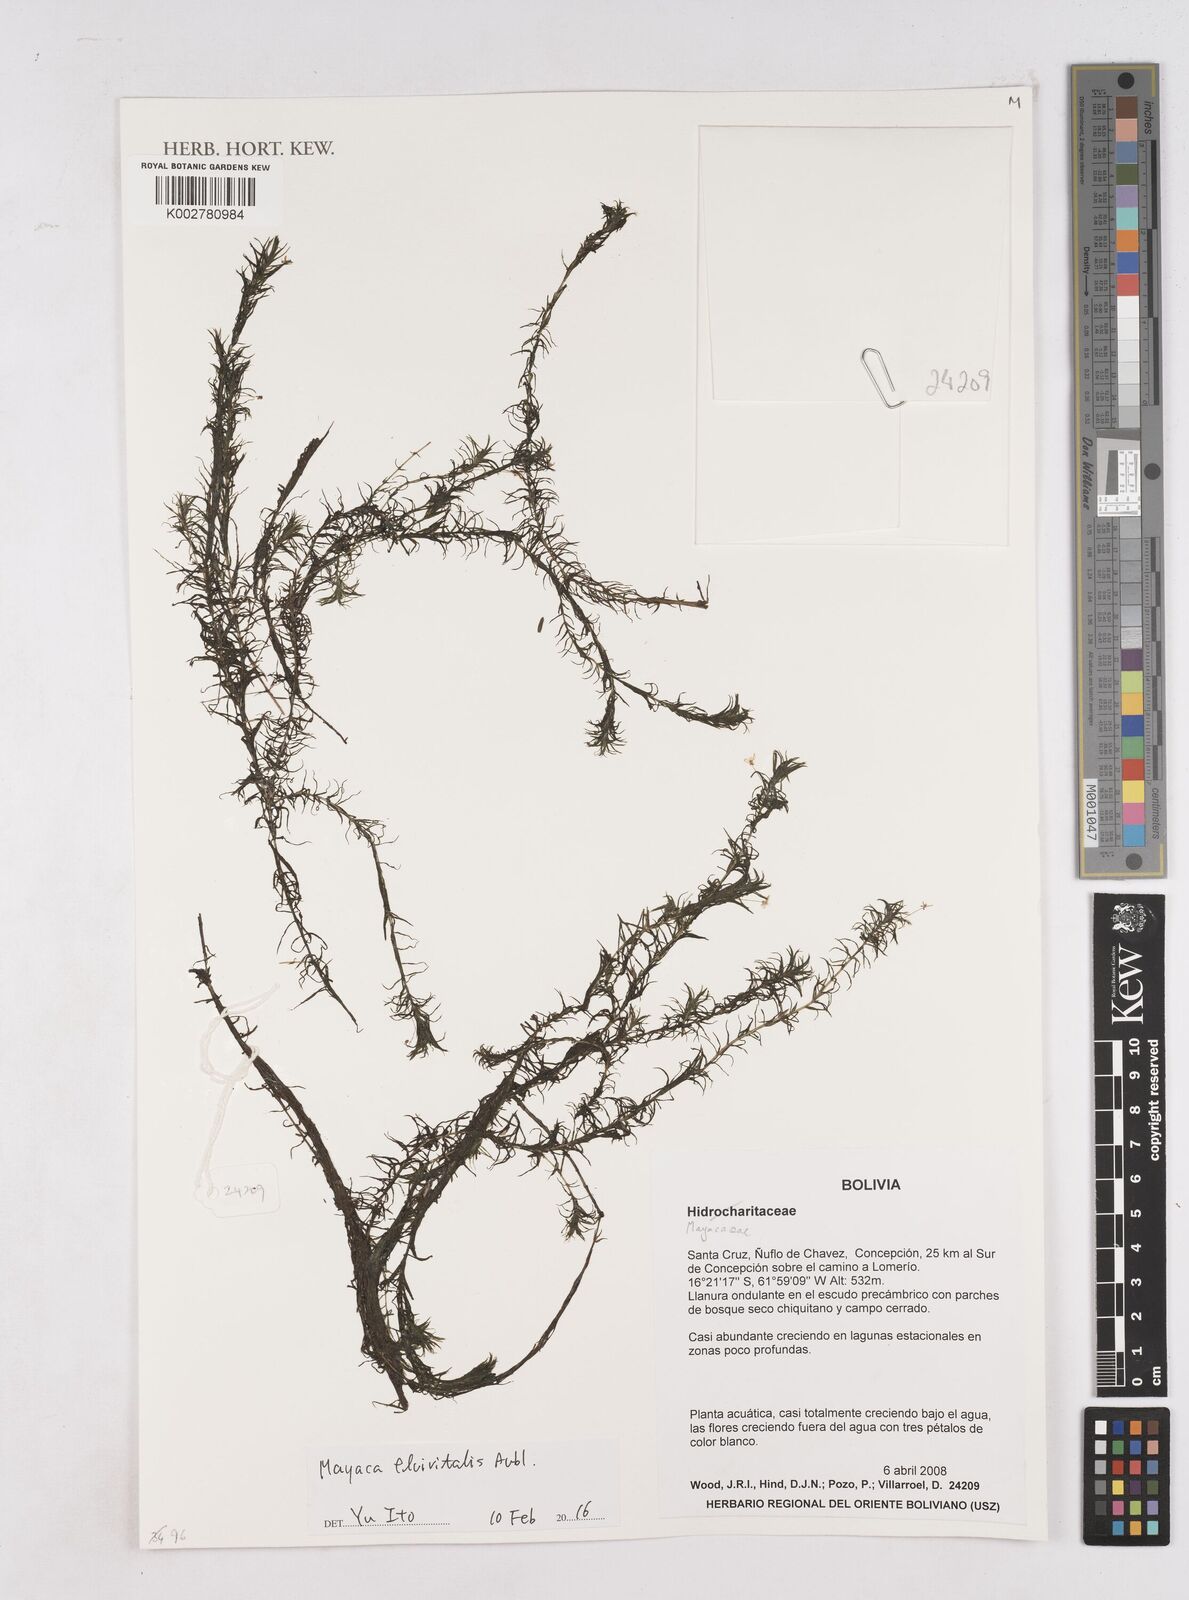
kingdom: Plantae
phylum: Tracheophyta
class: Liliopsida
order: Poales
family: Mayacaceae
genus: Mayaca
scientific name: Mayaca fluviatilis
